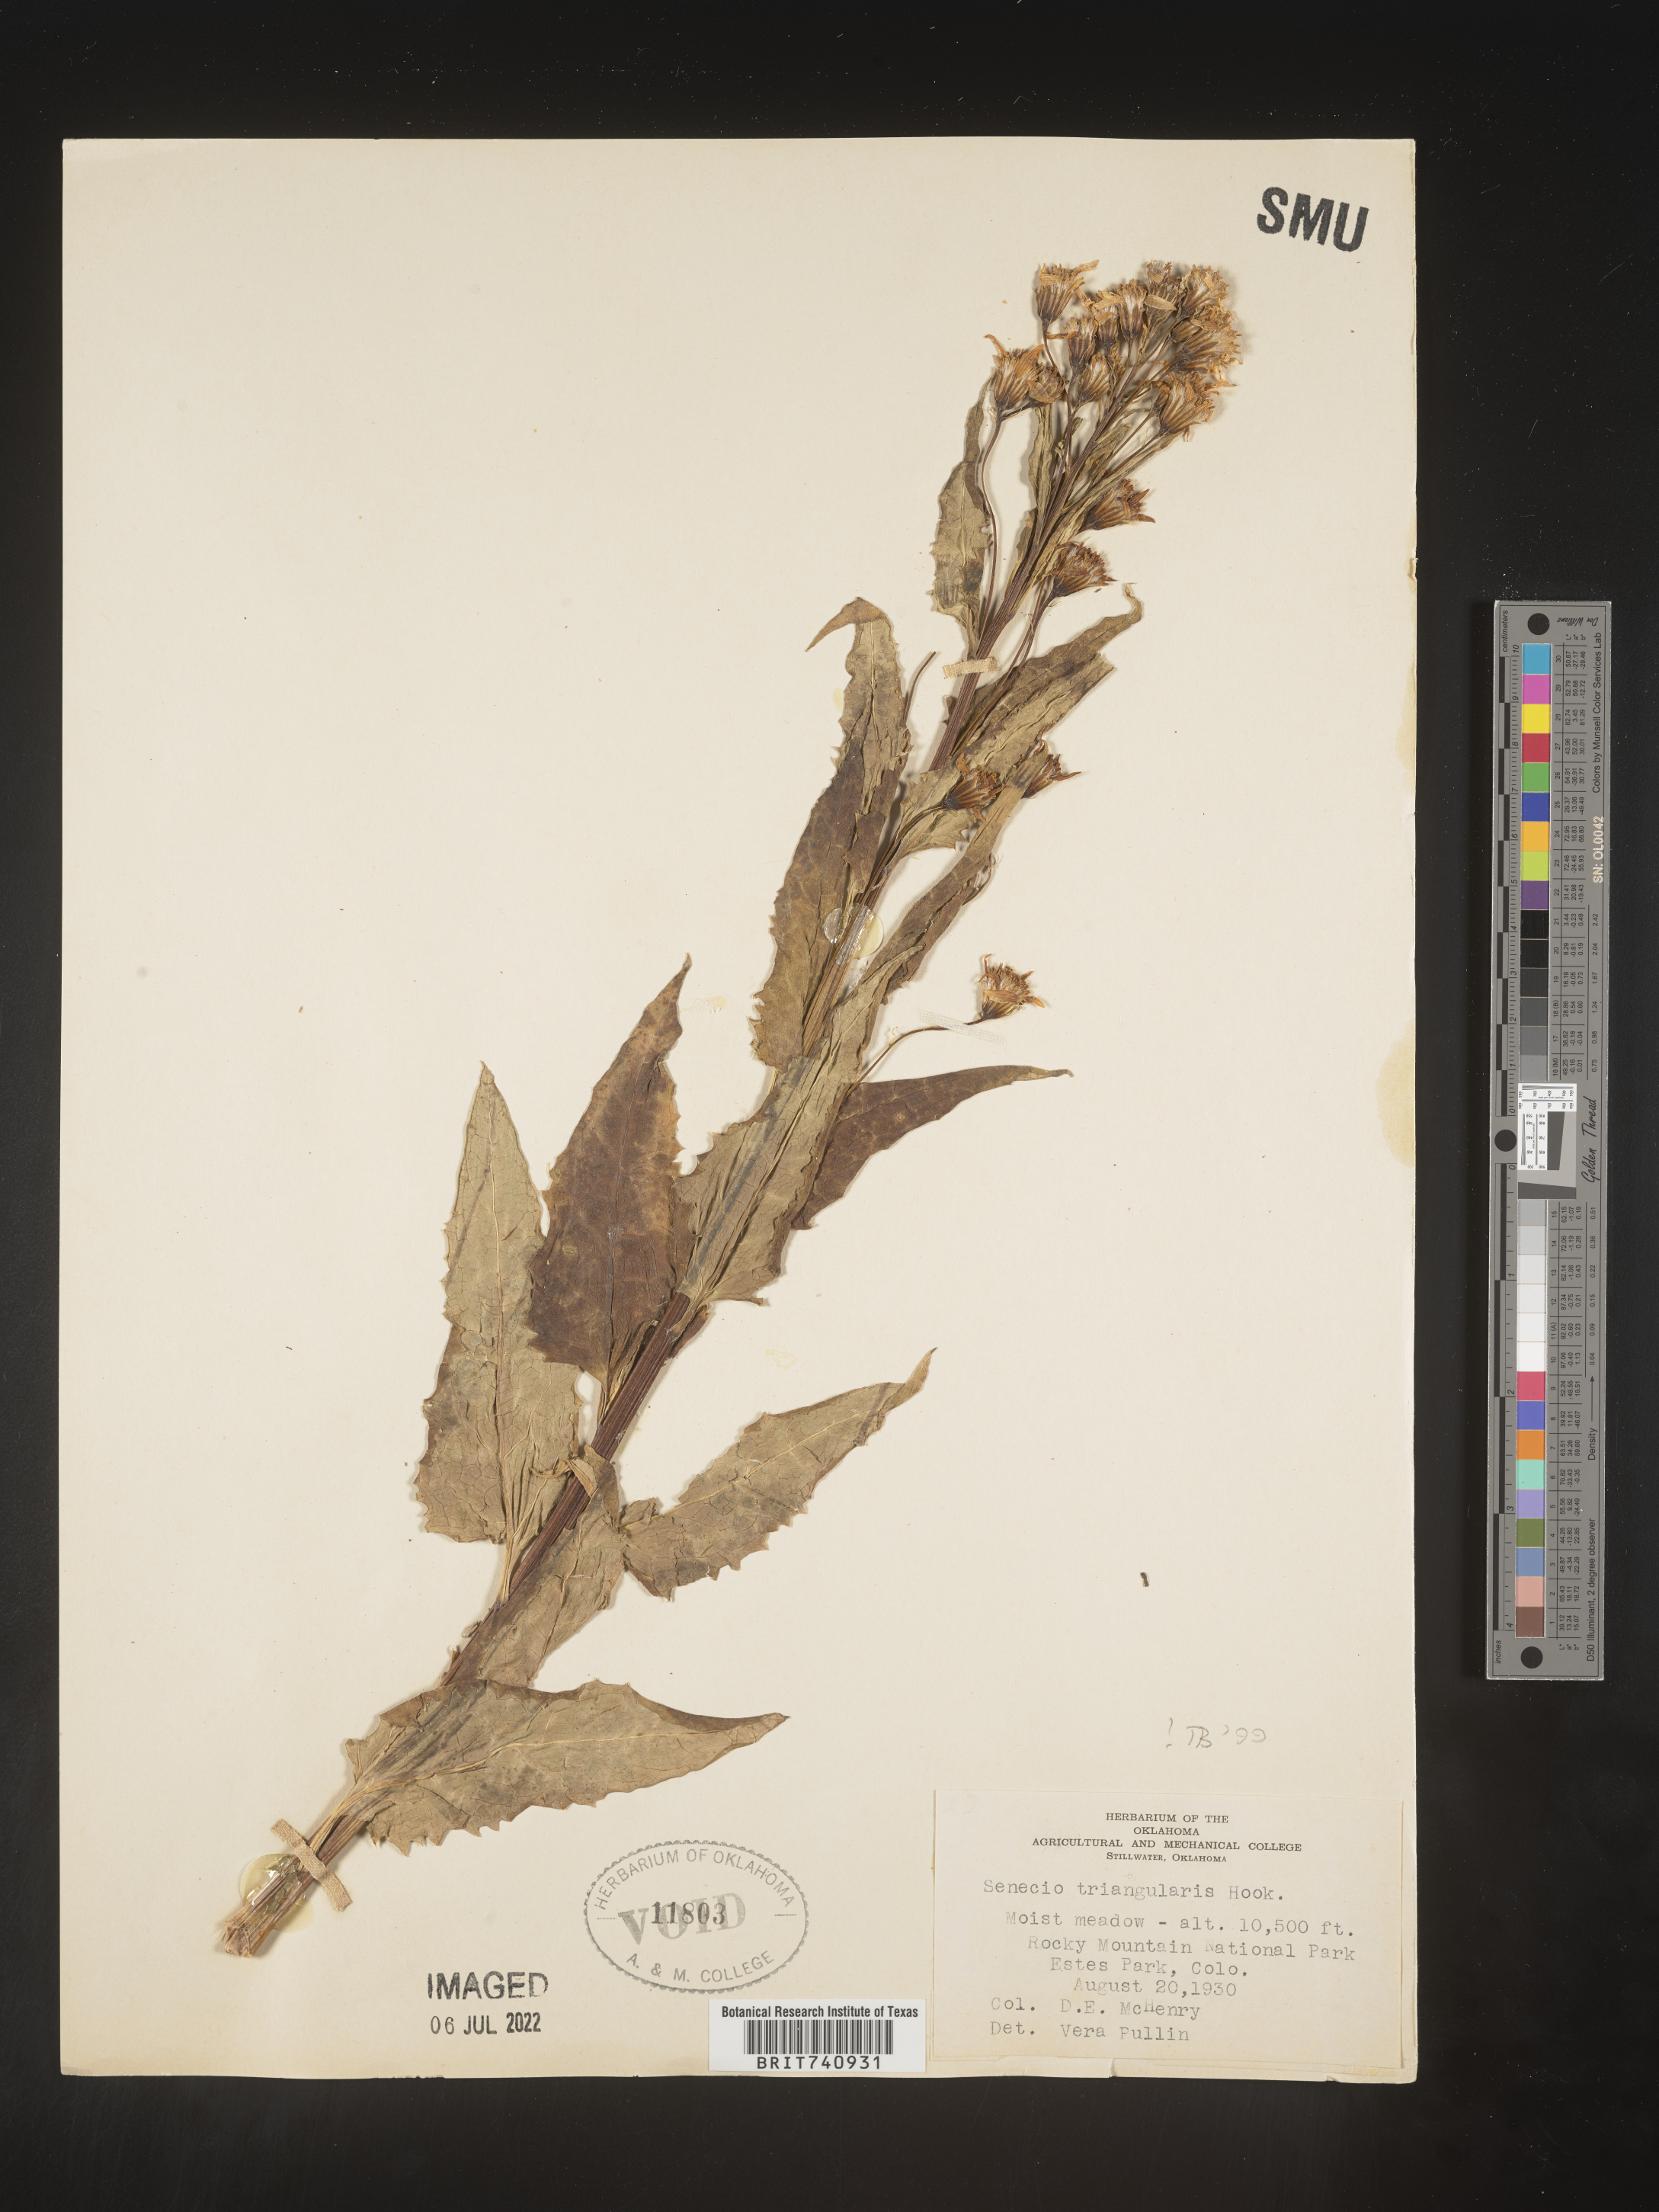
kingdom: Plantae
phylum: Tracheophyta
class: Magnoliopsida
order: Asterales
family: Asteraceae
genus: Senecio
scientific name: Senecio triangularis
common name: Arrowleaf butterweed
